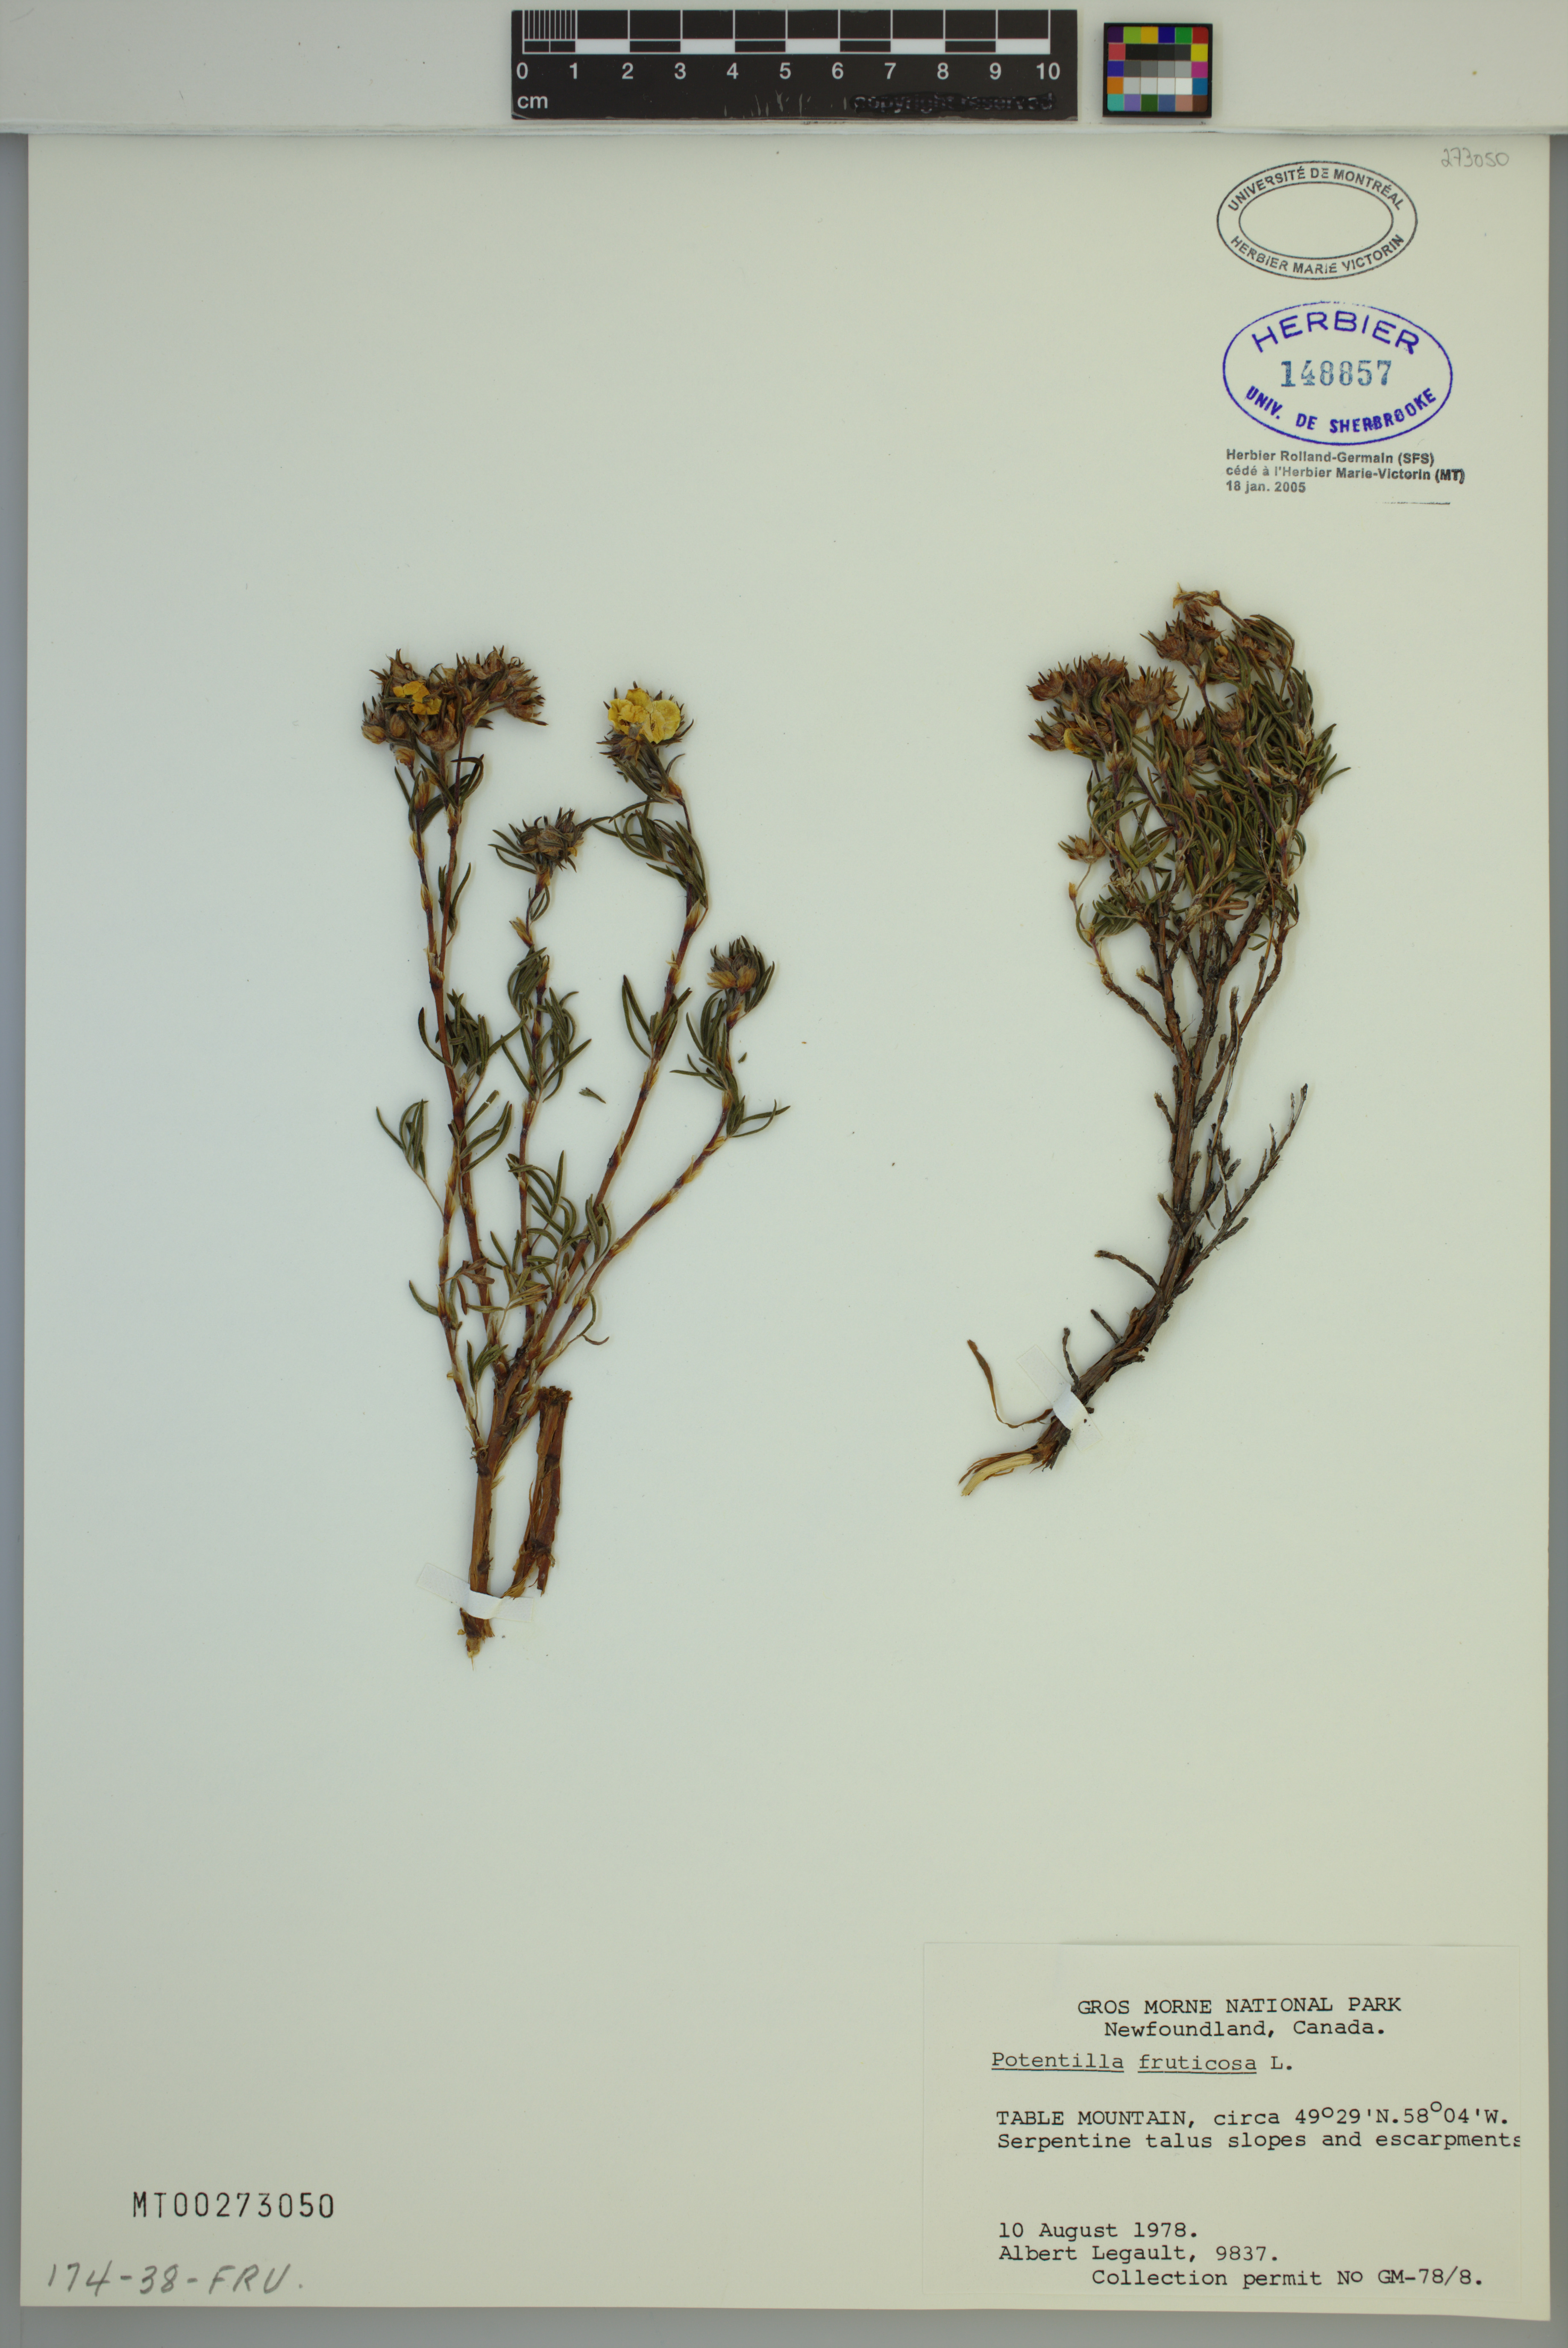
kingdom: Plantae
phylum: Tracheophyta
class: Magnoliopsida
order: Rosales
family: Rosaceae
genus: Dasiphora
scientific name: Dasiphora fruticosa
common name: Shrubby cinquefoil
